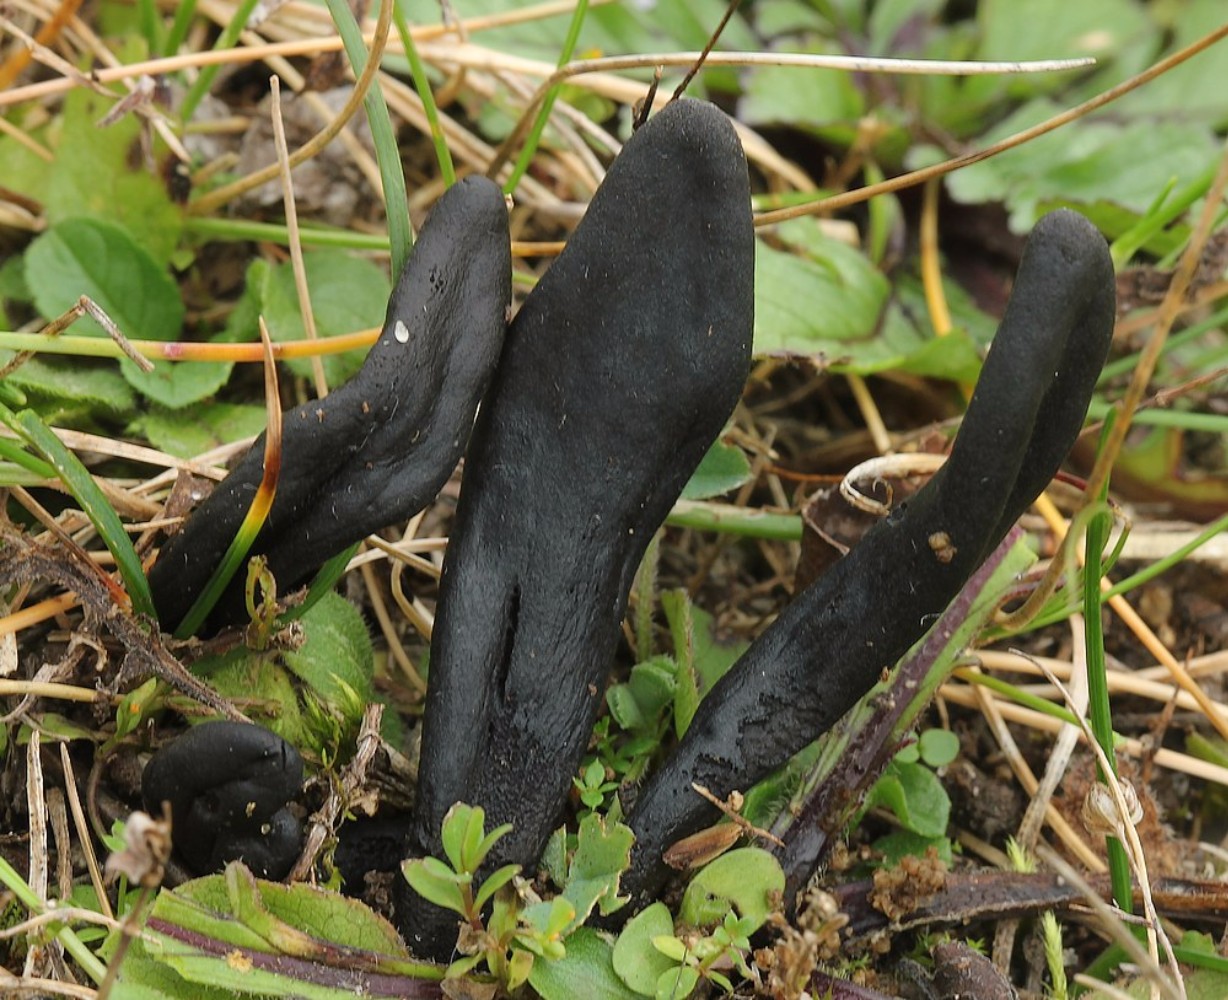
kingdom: Fungi
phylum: Ascomycota
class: Geoglossomycetes
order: Geoglossales
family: Geoglossaceae
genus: Geoglossum
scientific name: Geoglossum cookeianum
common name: bred jordtunge
